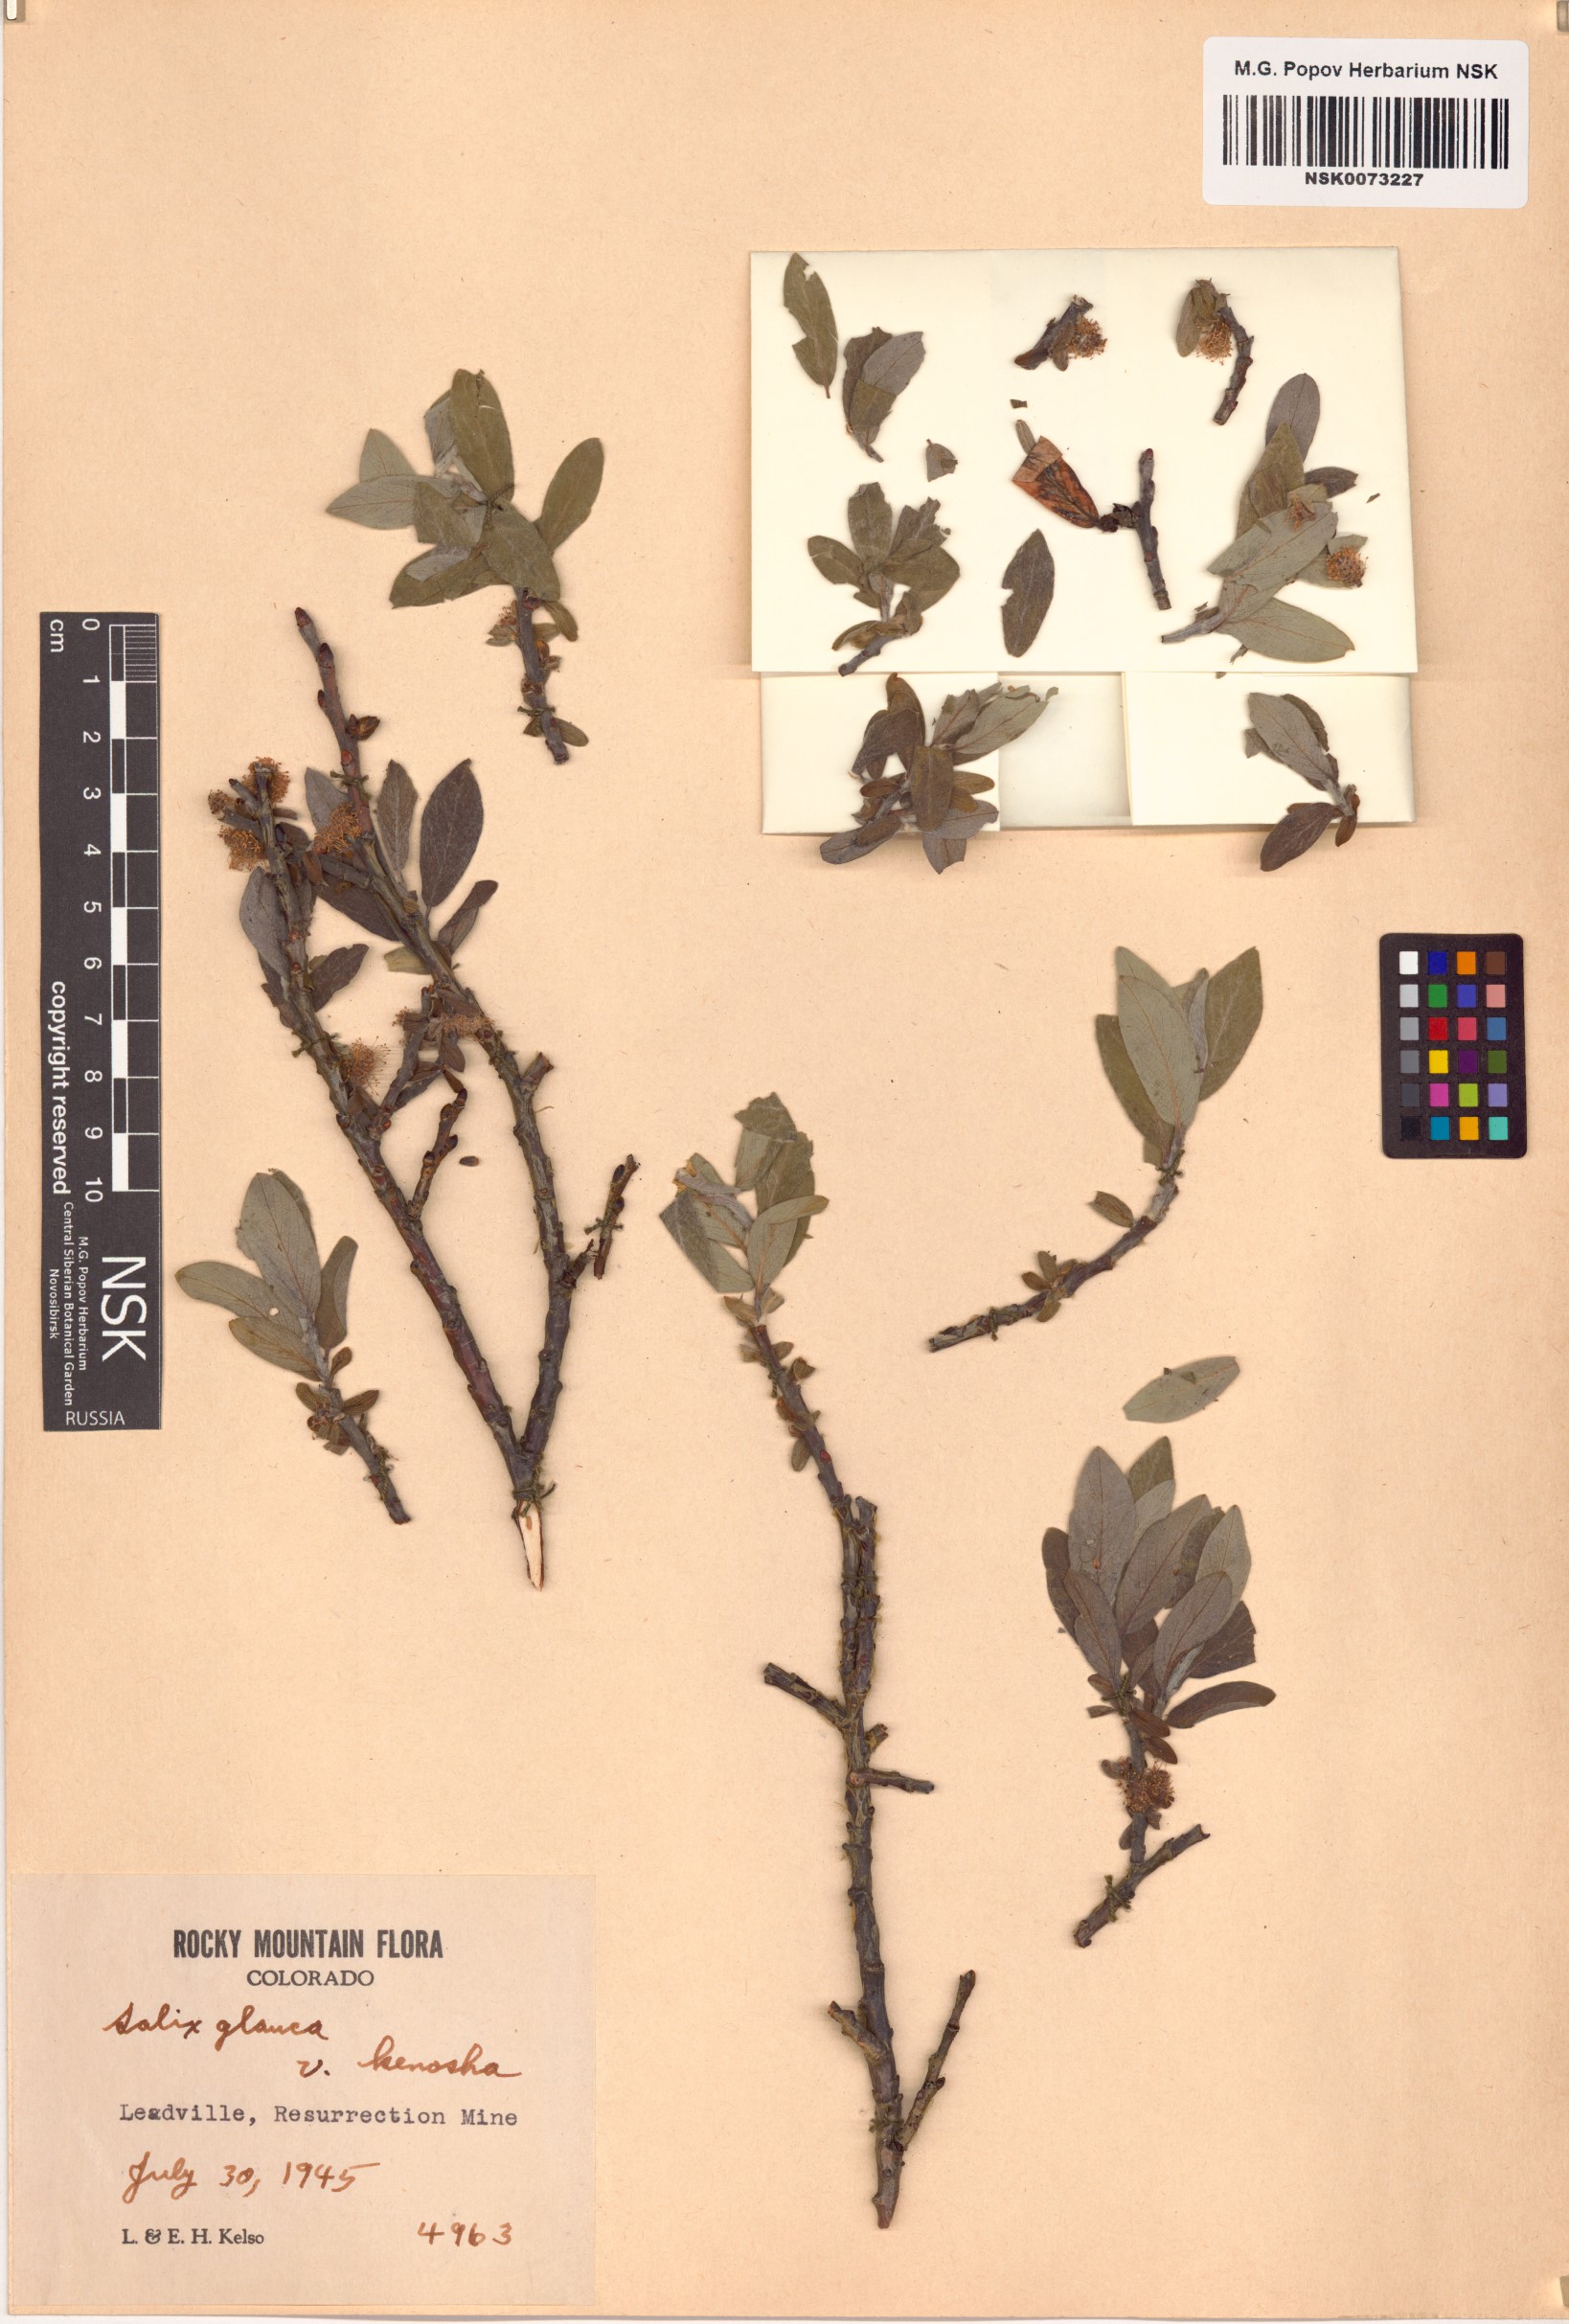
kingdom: Plantae
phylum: Tracheophyta
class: Magnoliopsida
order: Malpighiales
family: Salicaceae
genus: Salix
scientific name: Salix glauca
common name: Glaucous willow
